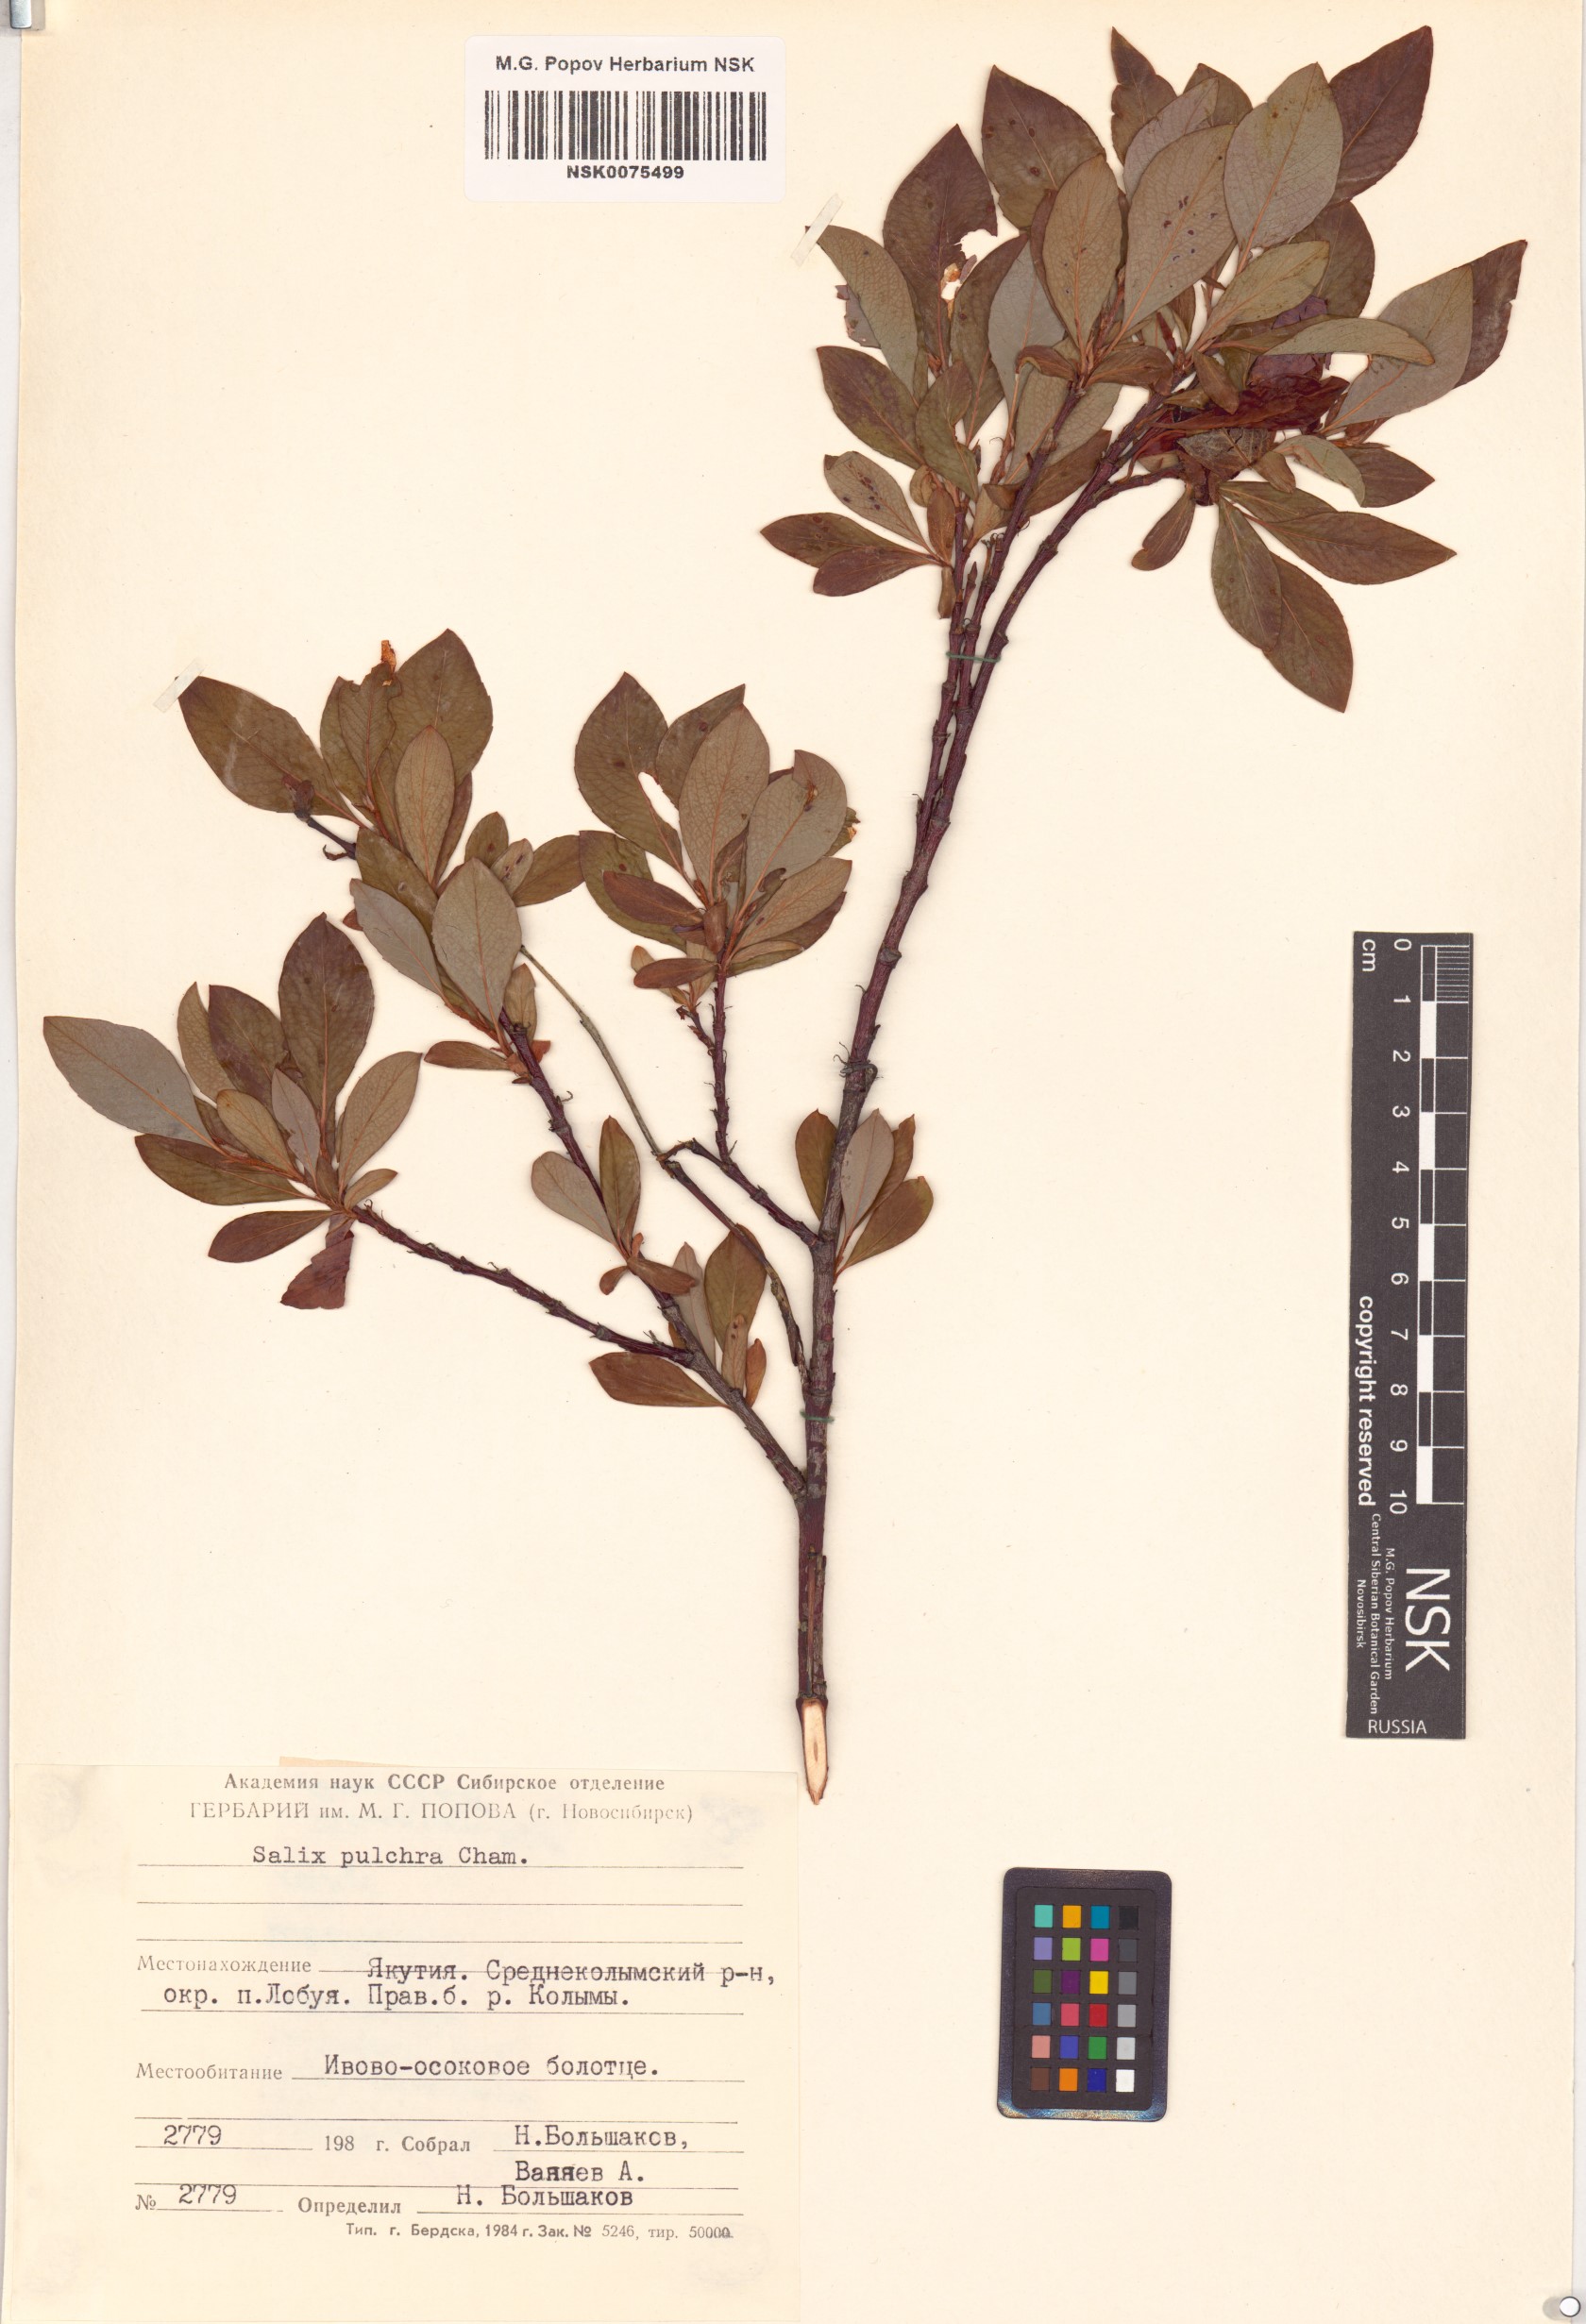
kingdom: Plantae
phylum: Tracheophyta
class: Magnoliopsida
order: Malpighiales
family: Salicaceae
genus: Salix
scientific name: Salix pulchra
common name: Diamond-leaved willow
